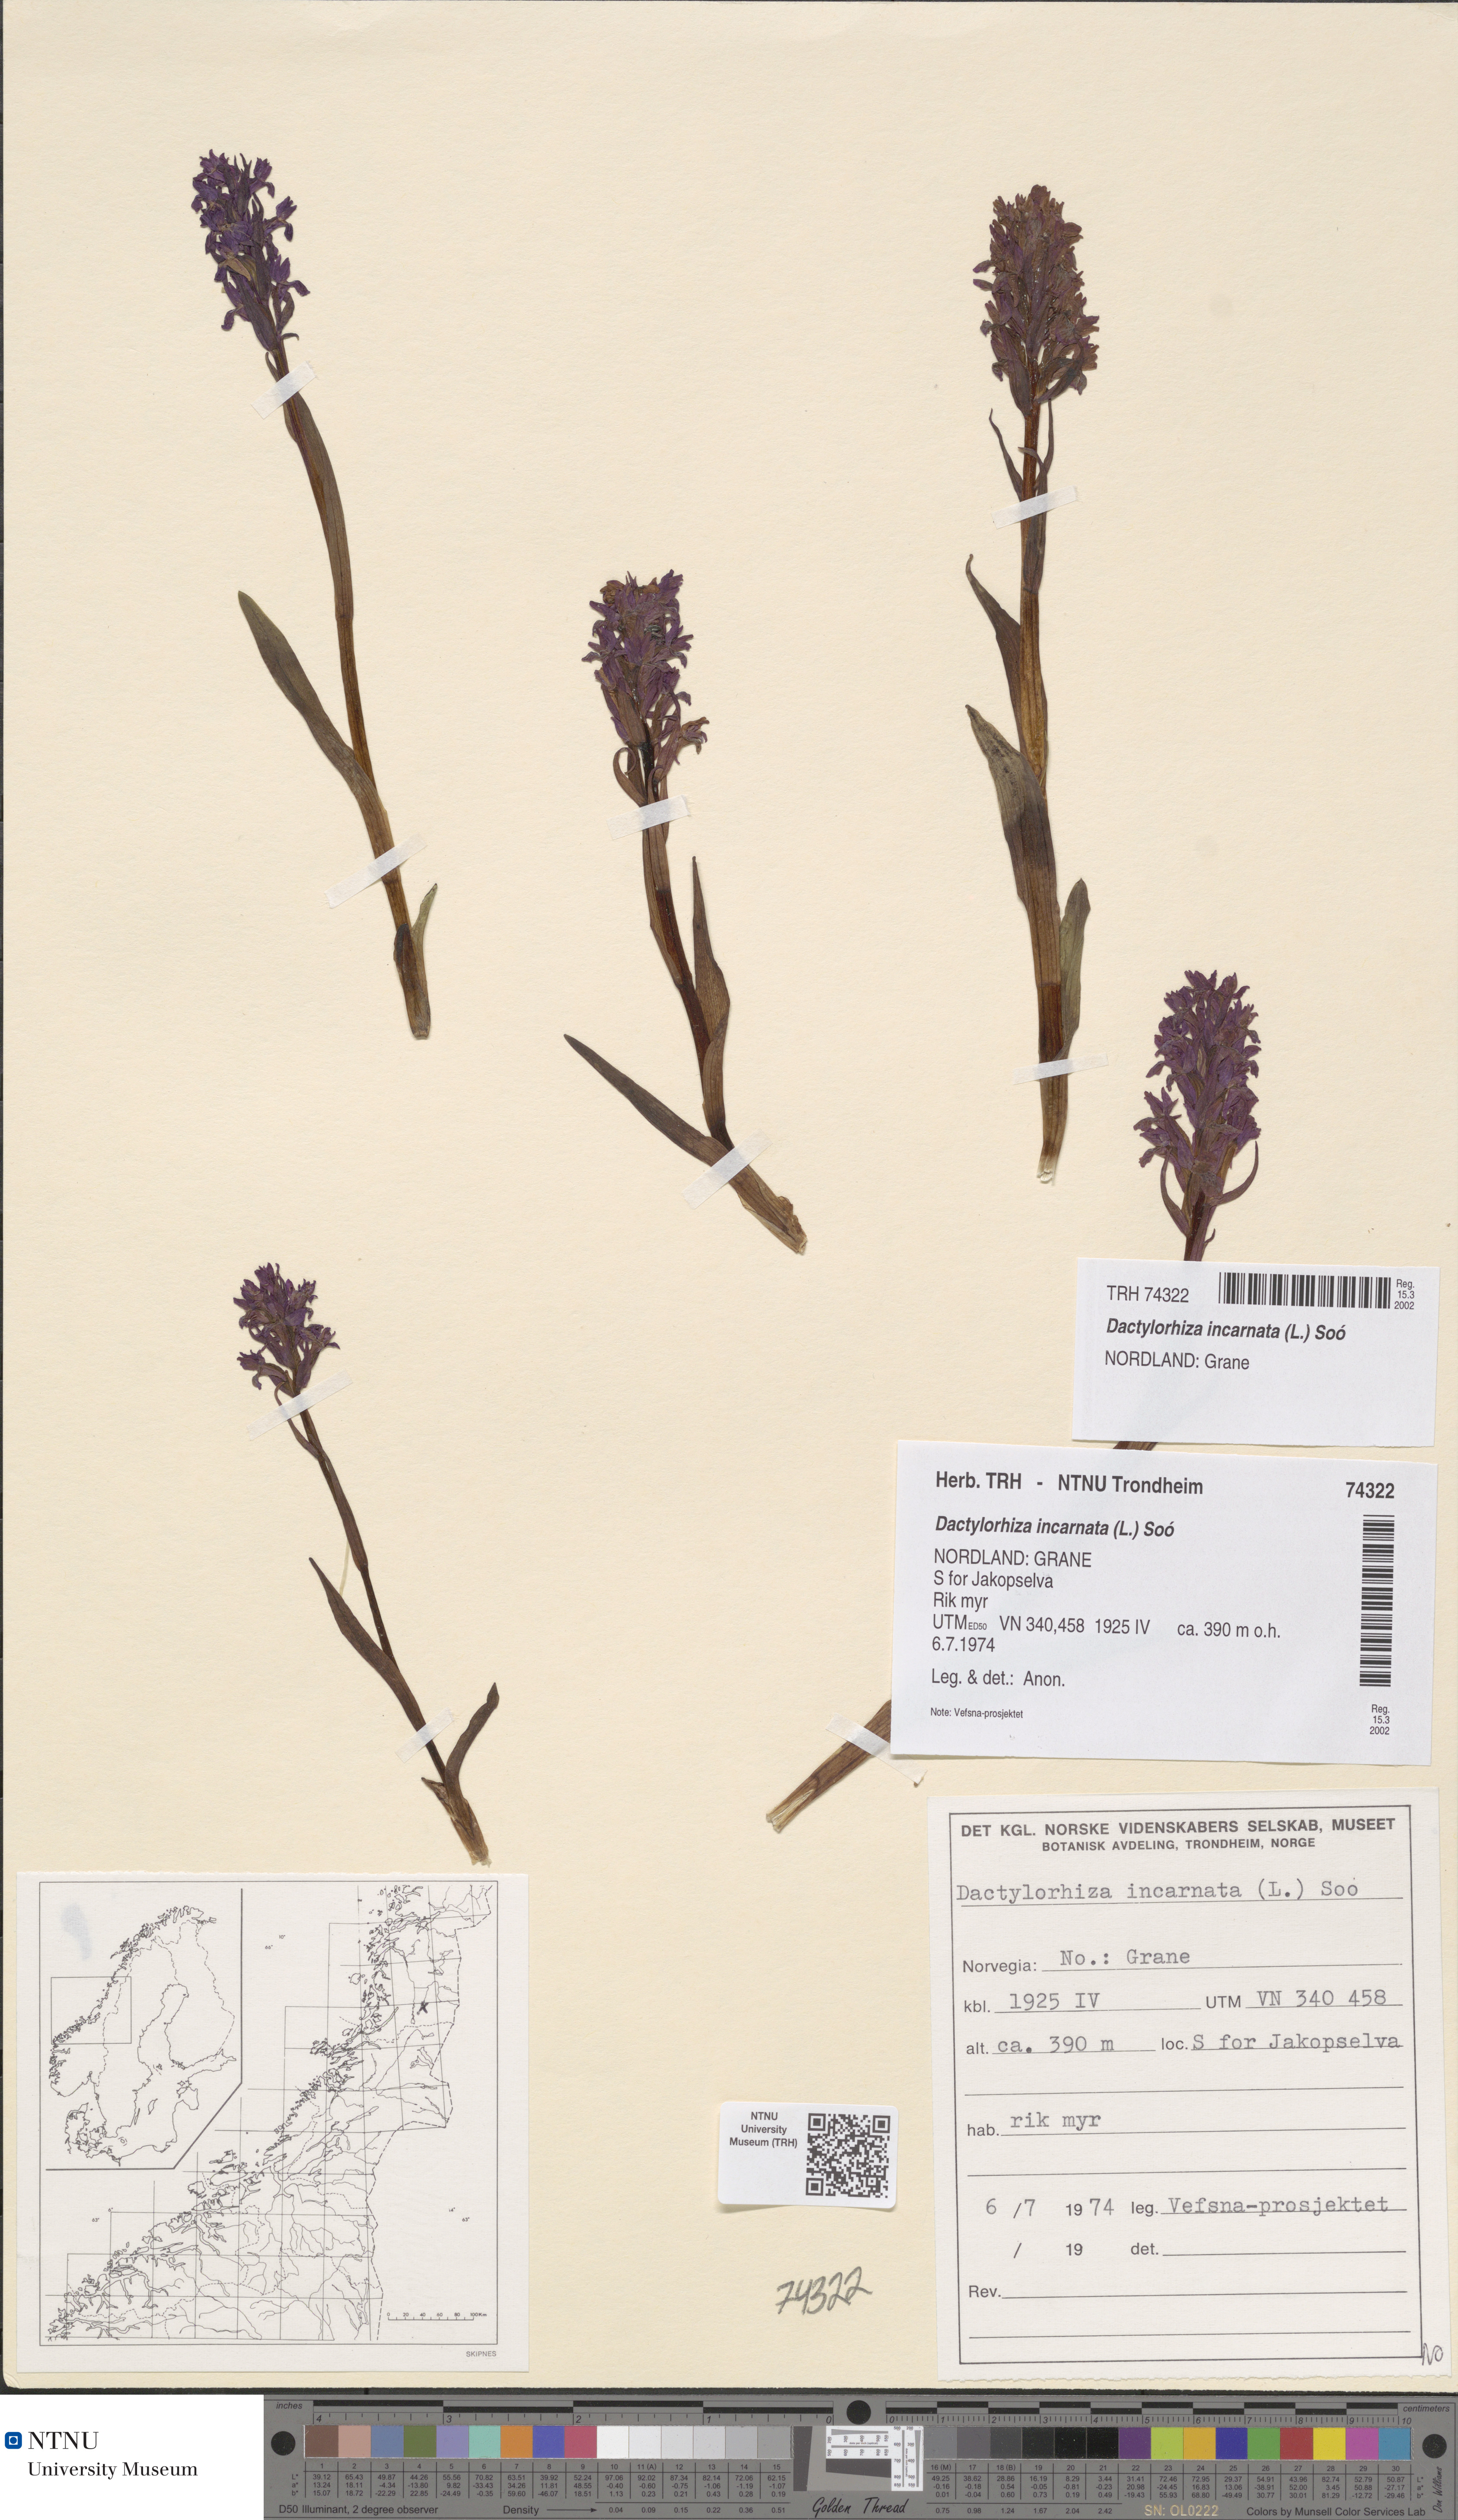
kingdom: Plantae
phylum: Tracheophyta
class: Liliopsida
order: Asparagales
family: Orchidaceae
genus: Dactylorhiza
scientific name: Dactylorhiza incarnata
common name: Early marsh-orchid
